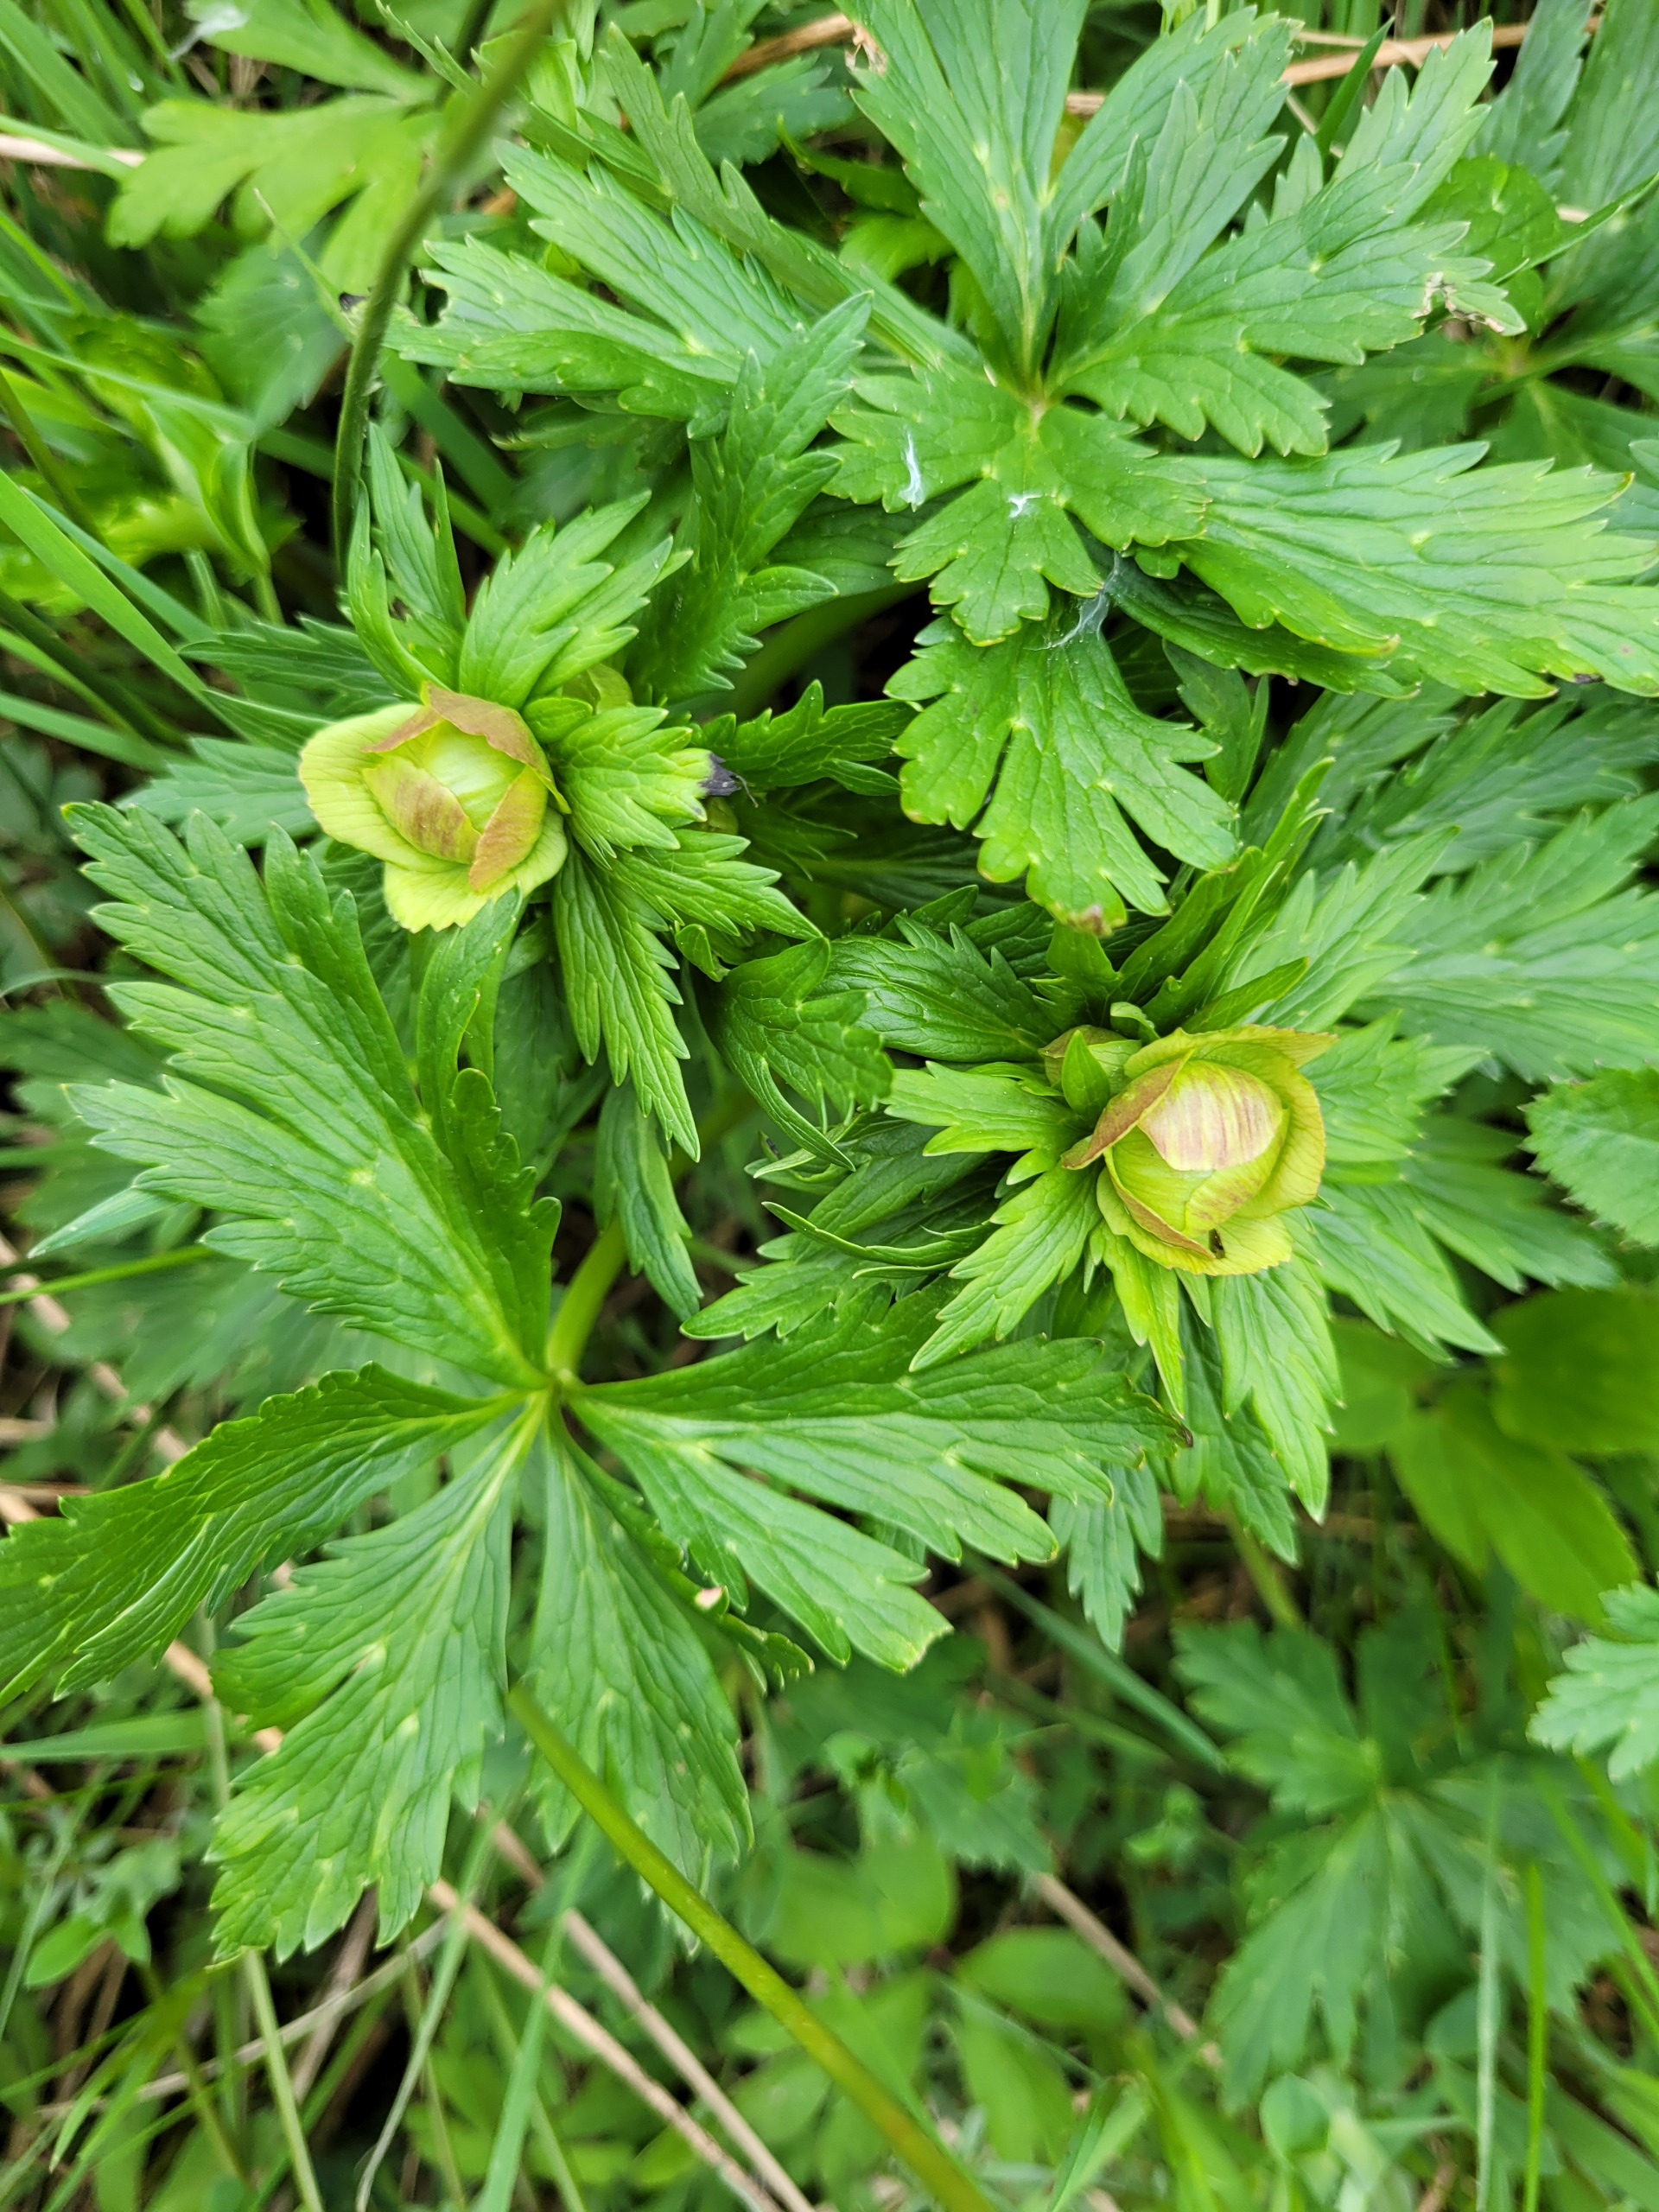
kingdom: Plantae
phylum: Tracheophyta
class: Magnoliopsida
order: Ranunculales
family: Ranunculaceae
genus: Trollius
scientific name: Trollius europaeus
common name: Engblomme
